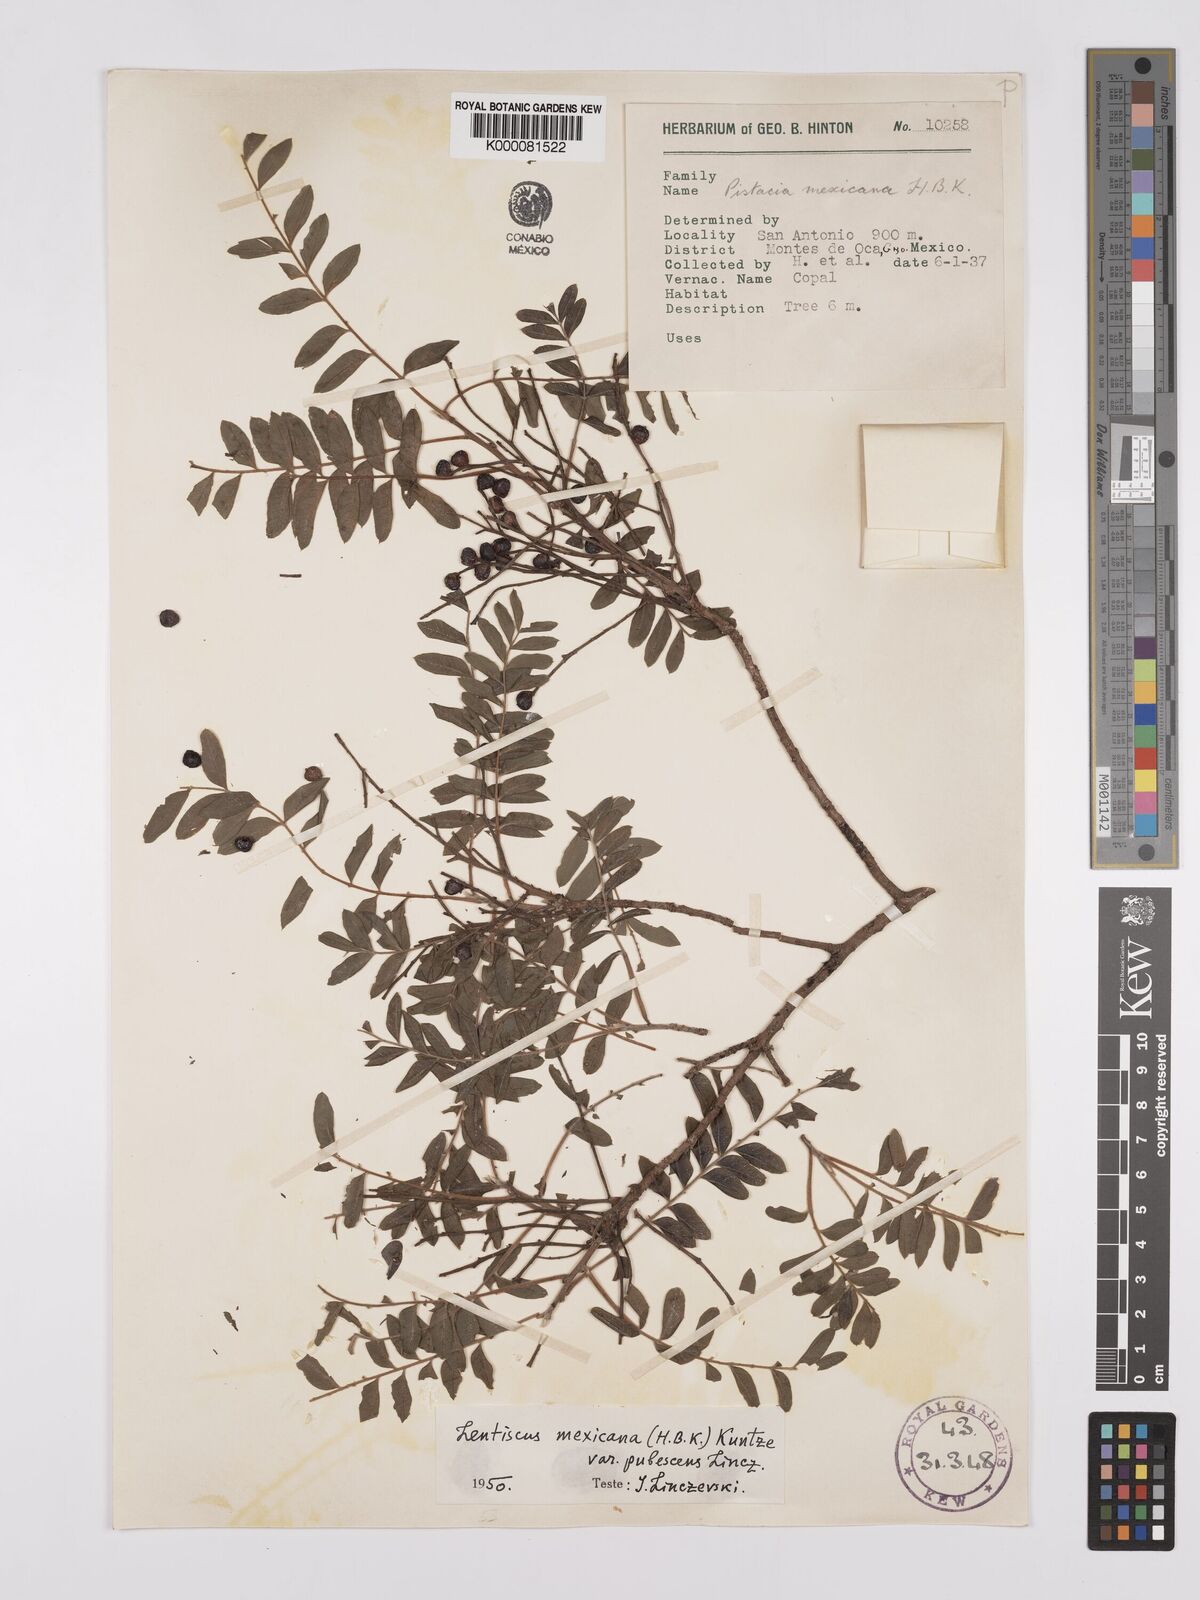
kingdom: Plantae
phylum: Tracheophyta
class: Magnoliopsida
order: Sapindales
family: Anacardiaceae
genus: Pistacia
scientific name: Pistacia mexicana
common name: Mexican pistachio
